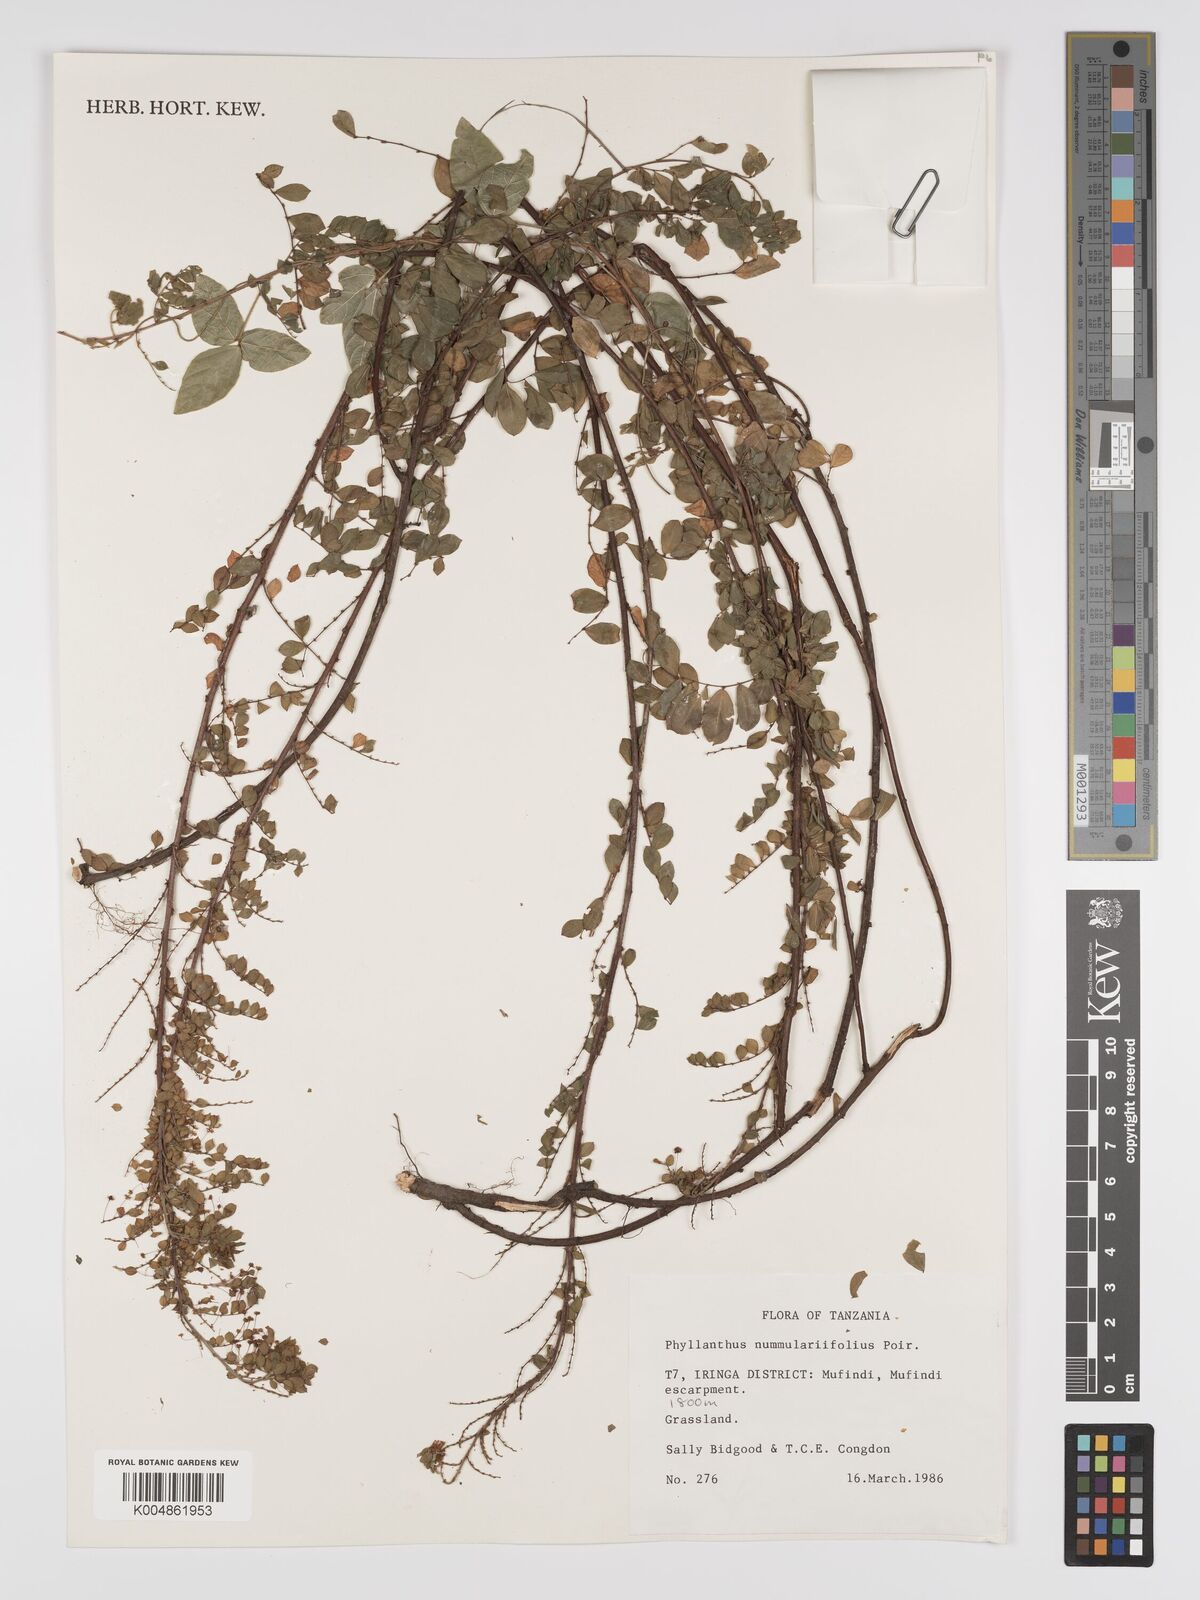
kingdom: Plantae
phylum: Tracheophyta
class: Magnoliopsida
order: Malpighiales
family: Phyllanthaceae
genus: Phyllanthus
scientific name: Phyllanthus nummulariifolius
